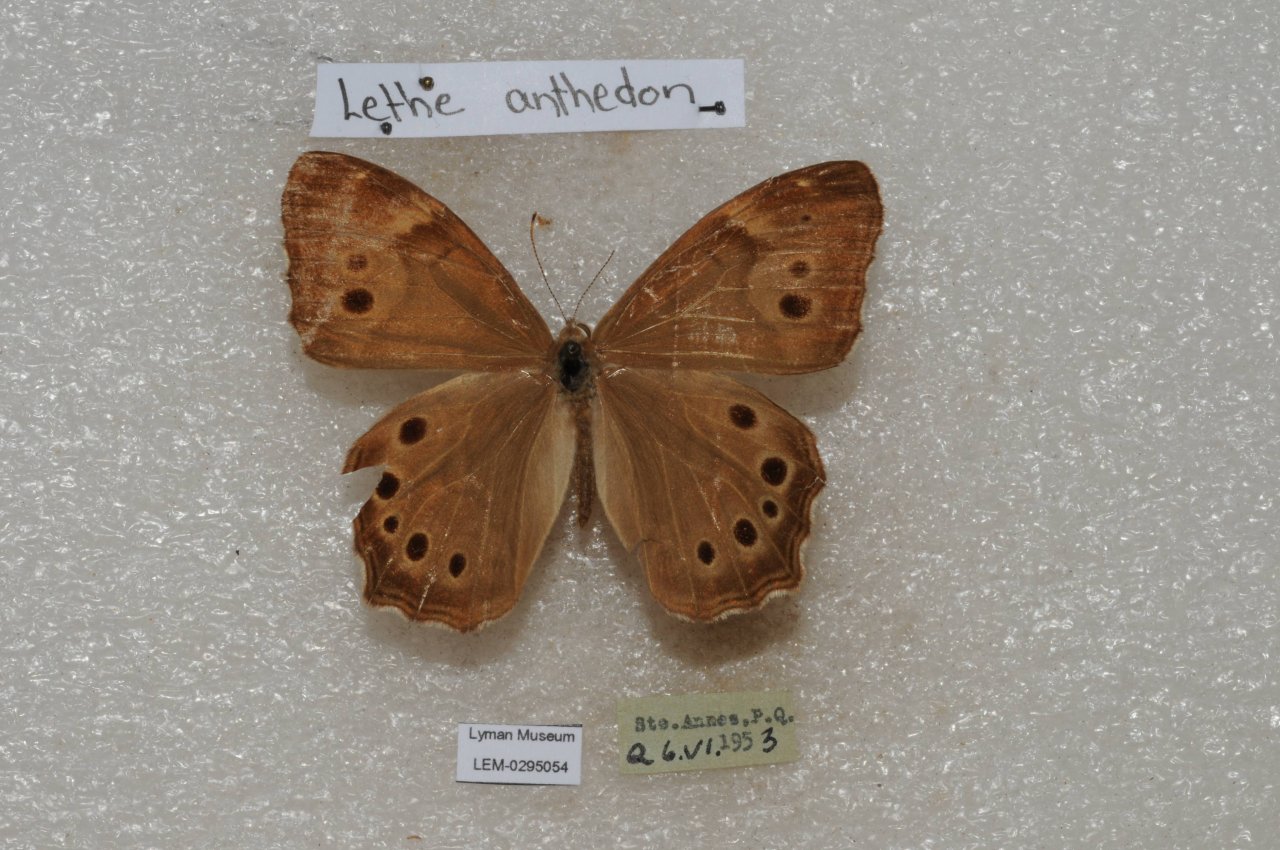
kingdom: Animalia
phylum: Arthropoda
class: Insecta
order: Lepidoptera
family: Nymphalidae
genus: Lethe
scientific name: Lethe anthedon
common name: Northern Pearly-Eye
